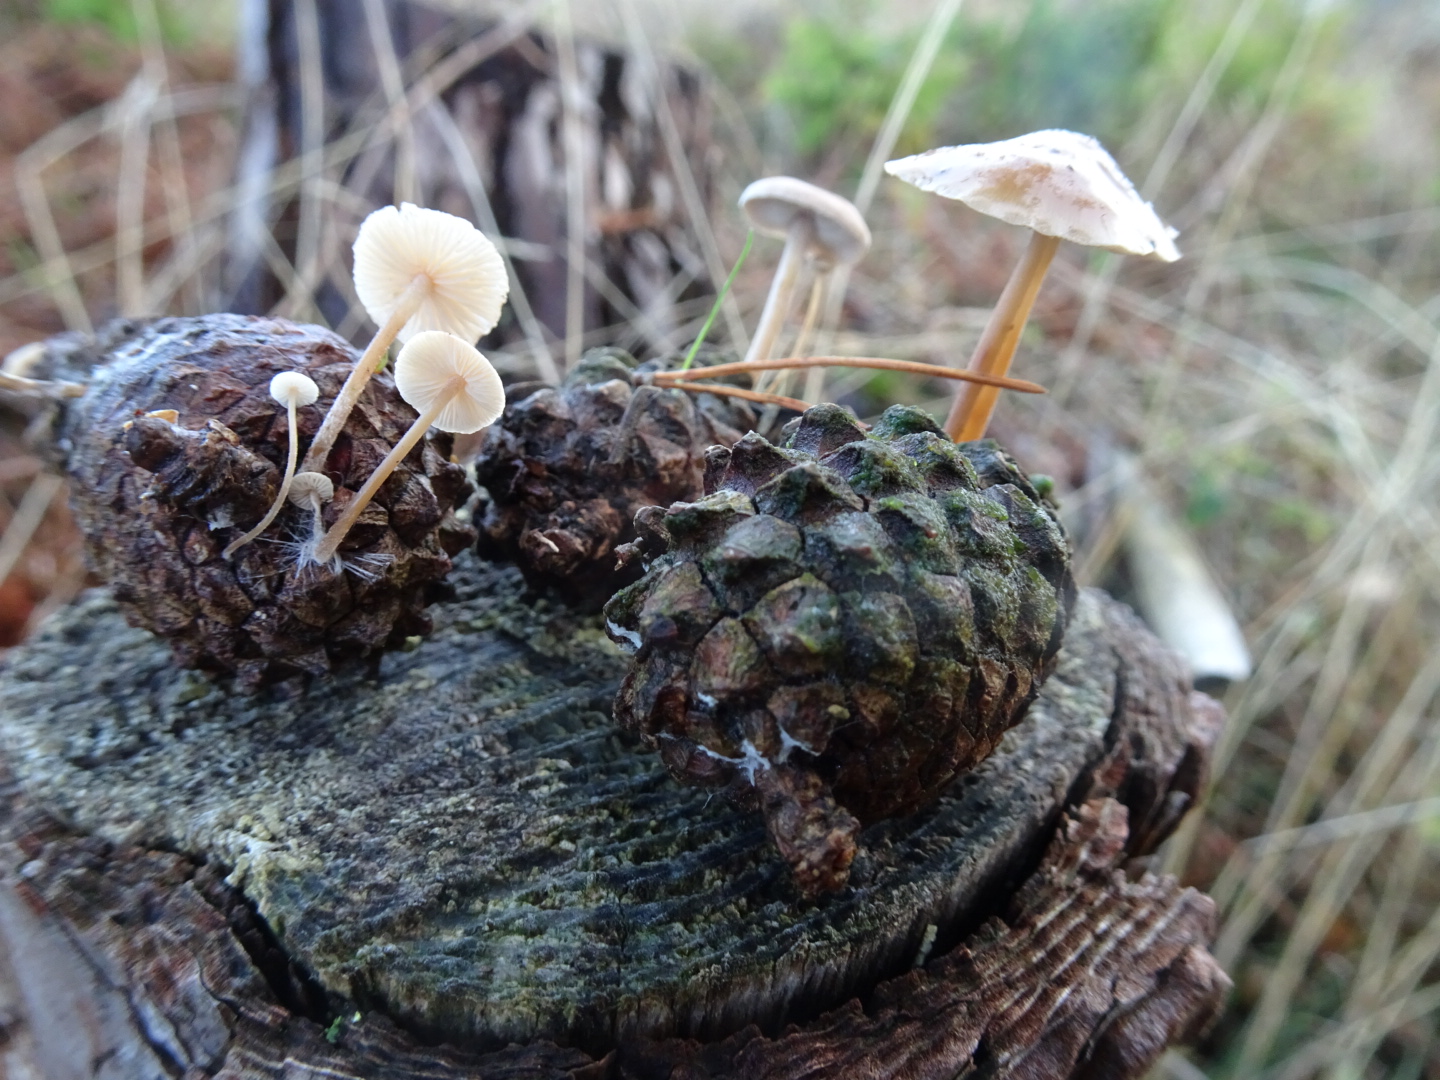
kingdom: Fungi
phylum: Basidiomycota
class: Agaricomycetes
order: Agaricales
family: Marasmiaceae
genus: Baeospora
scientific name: Baeospora myosura
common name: koglebruskhat
